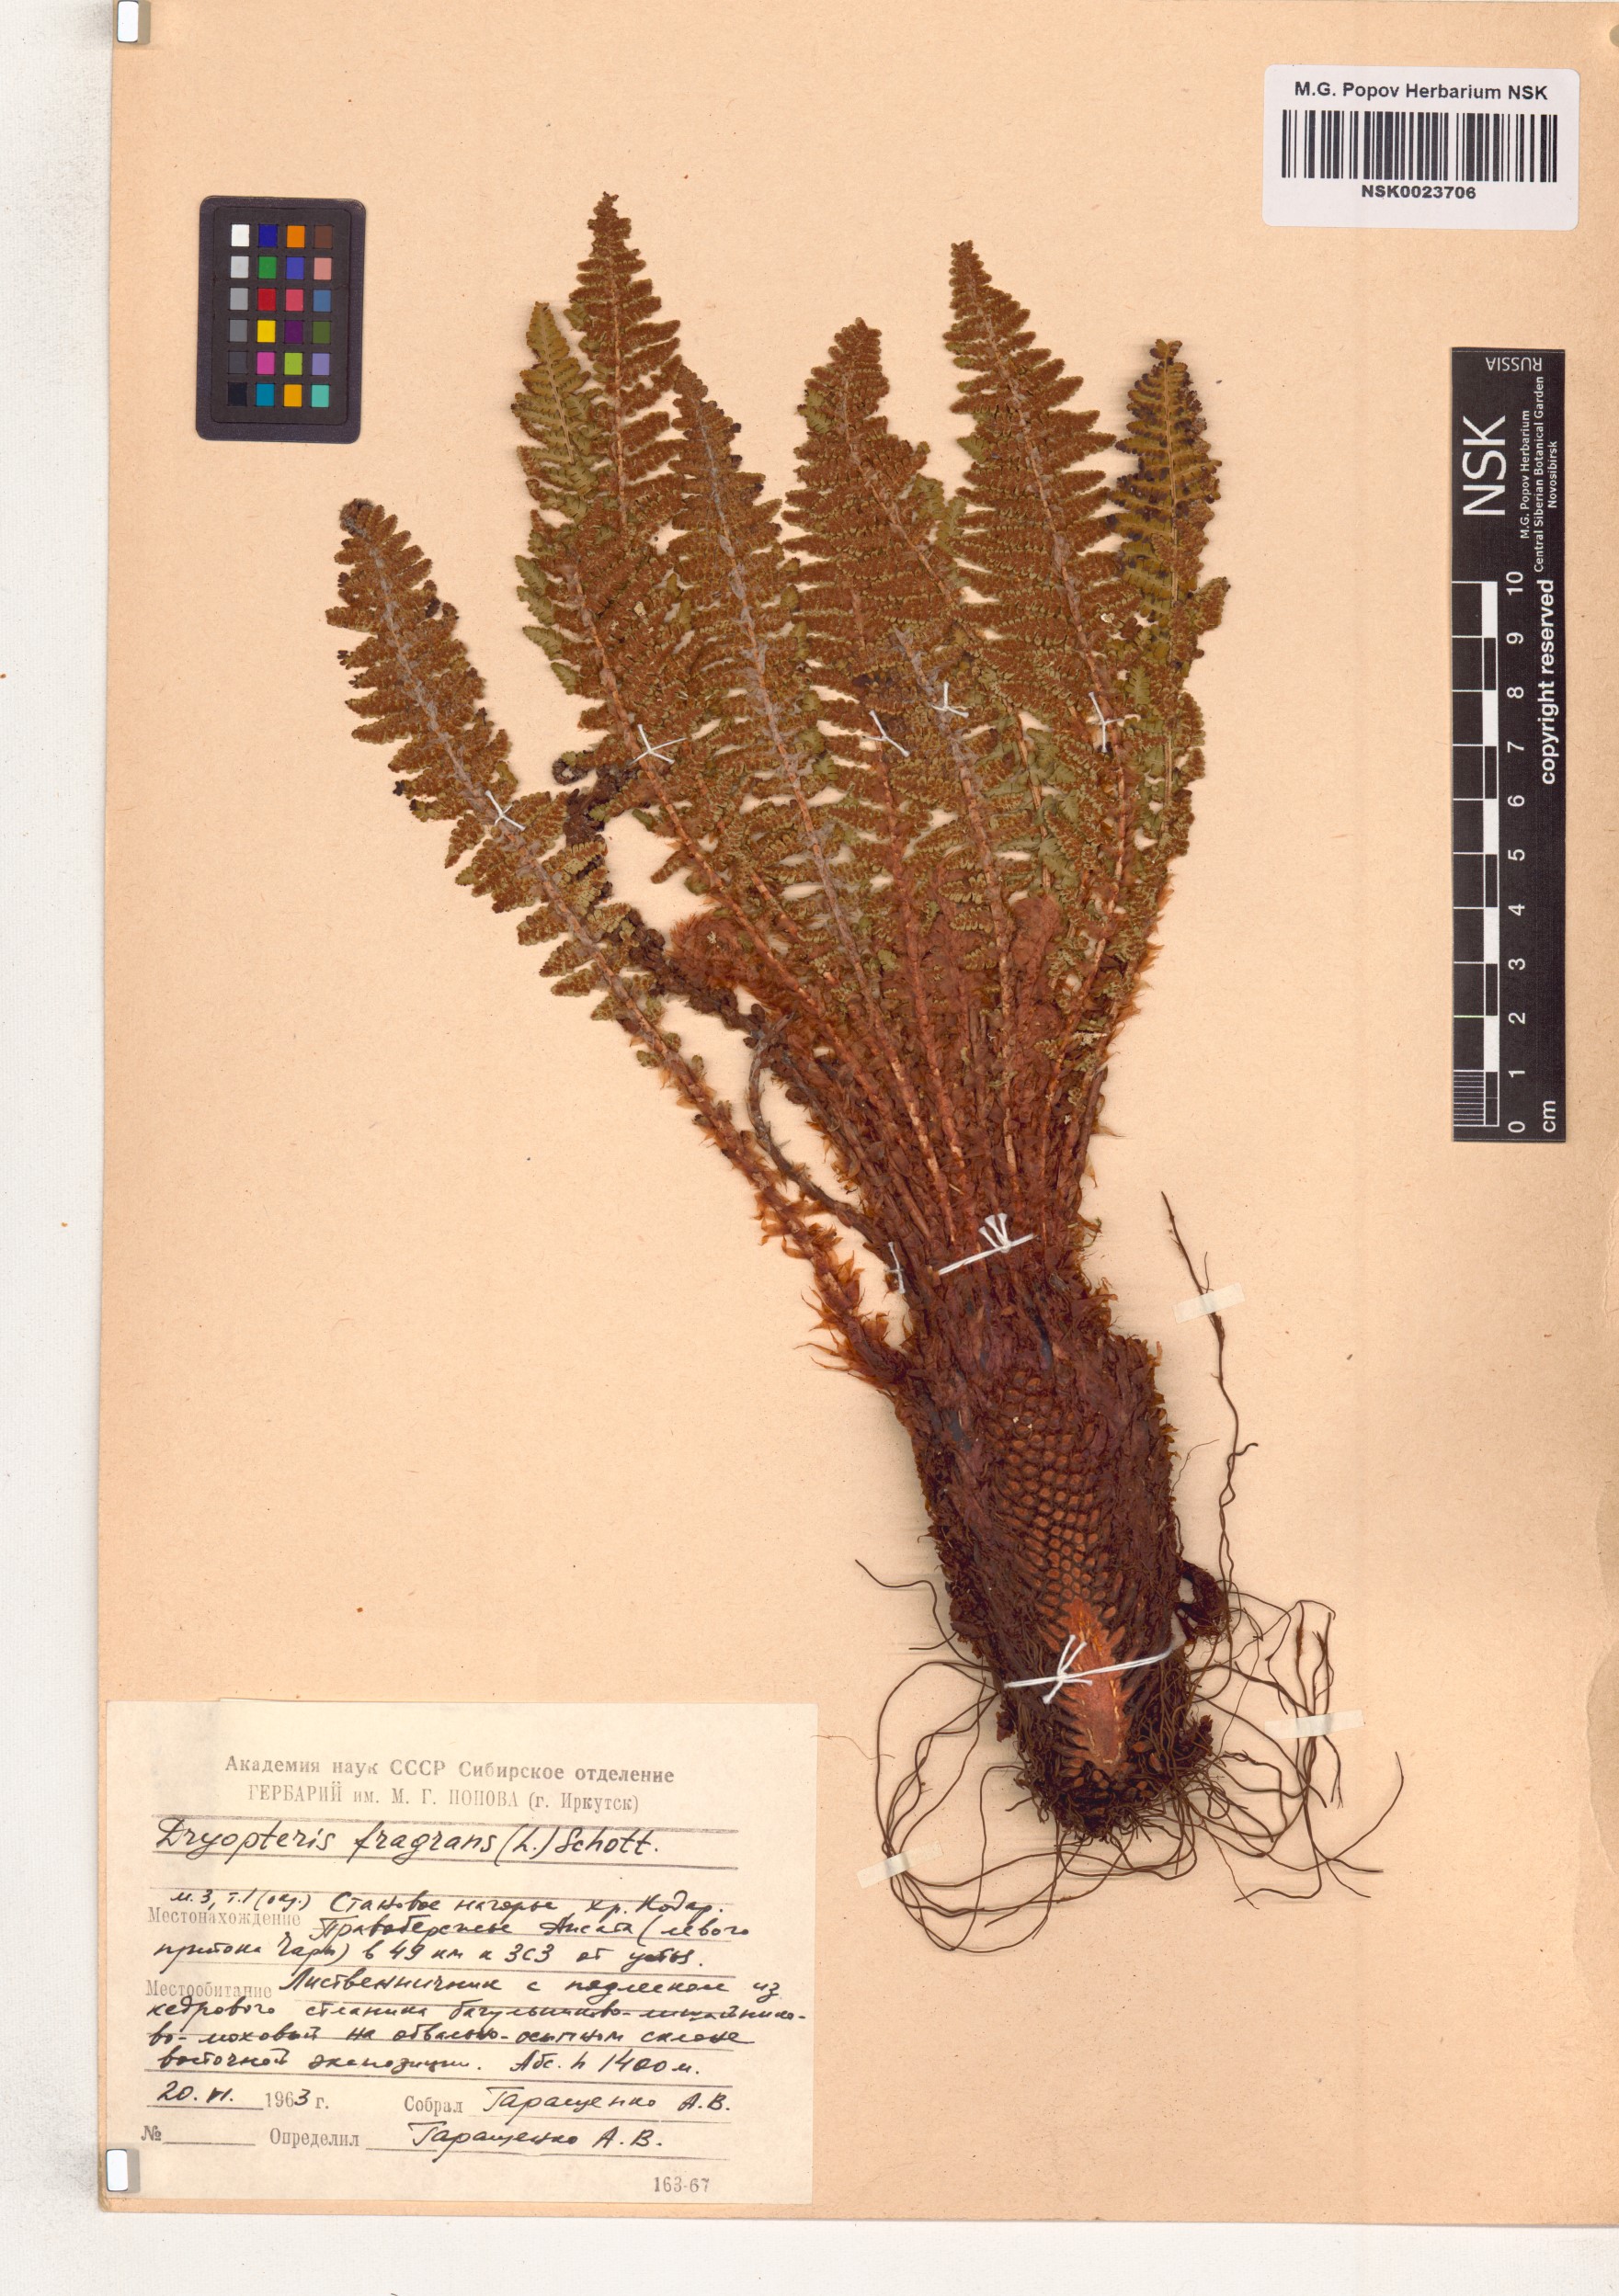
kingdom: Plantae
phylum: Tracheophyta
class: Polypodiopsida
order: Polypodiales
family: Dryopteridaceae
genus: Dryopteris
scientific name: Dryopteris fragrans
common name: Fragrant wood fern
